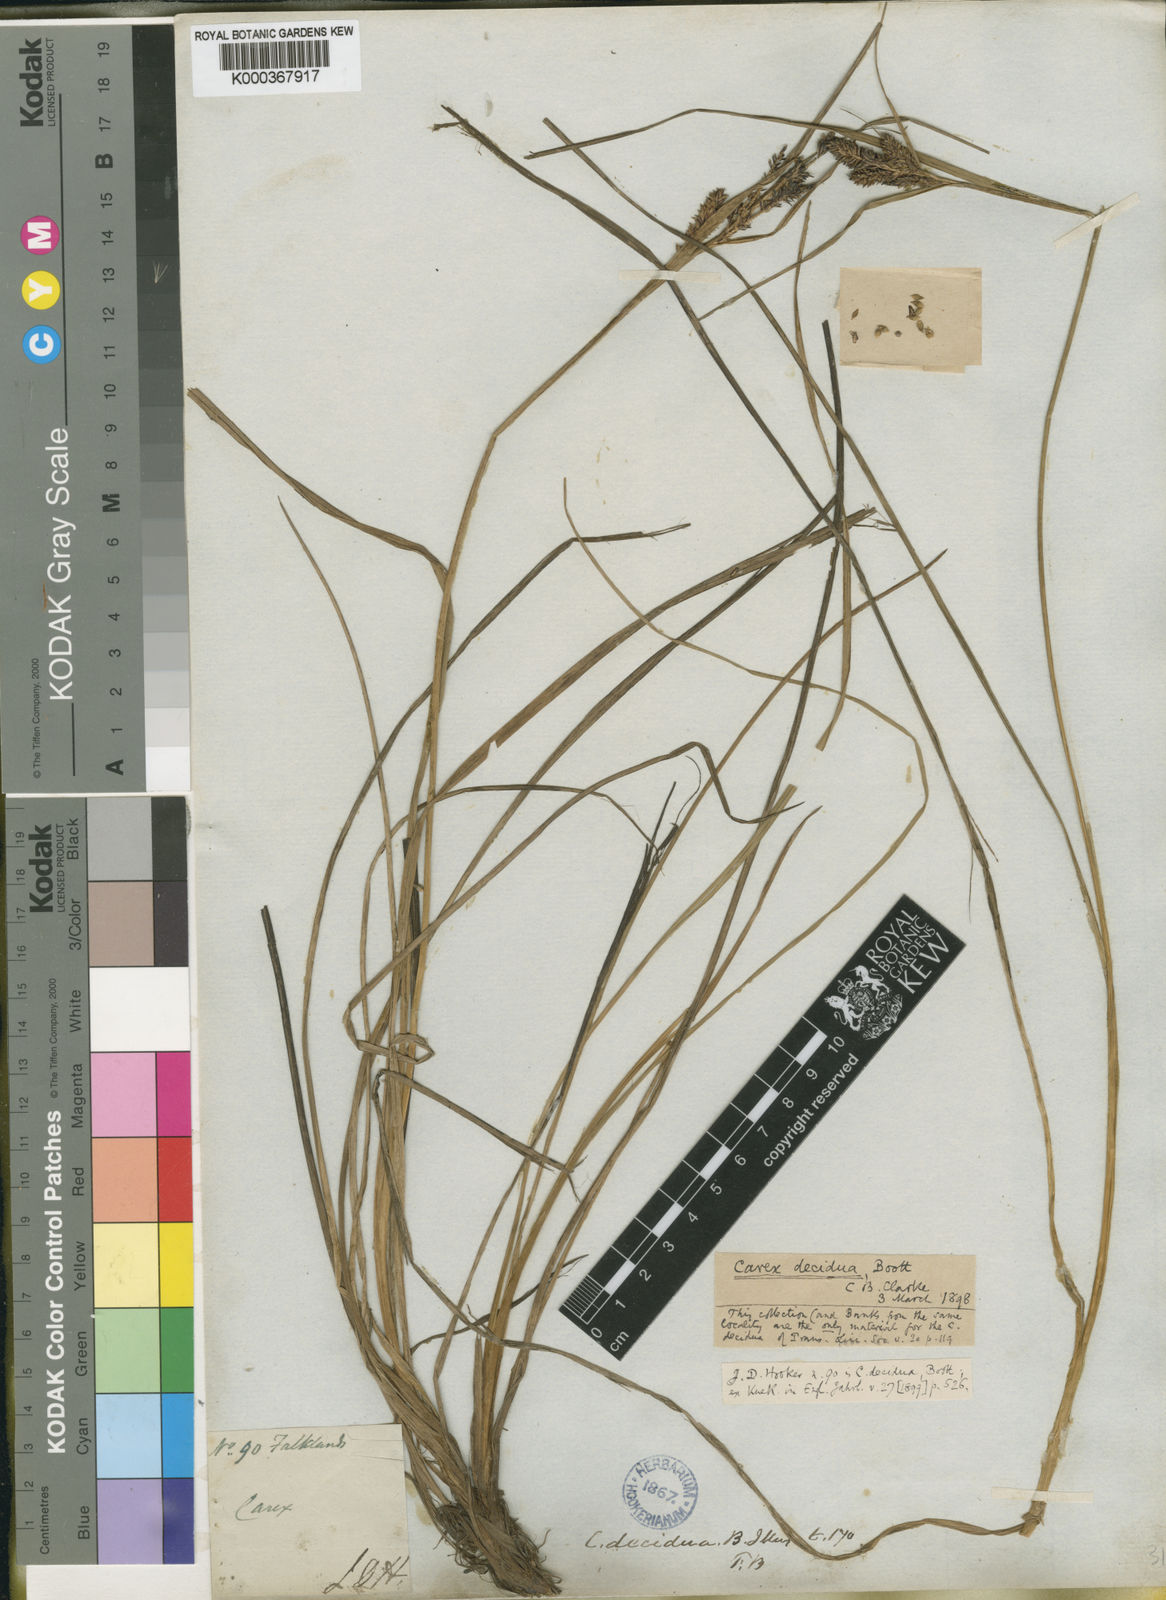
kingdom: Plantae
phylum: Tracheophyta
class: Liliopsida
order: Poales
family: Cyperaceae
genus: Carex
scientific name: Carex decidua
